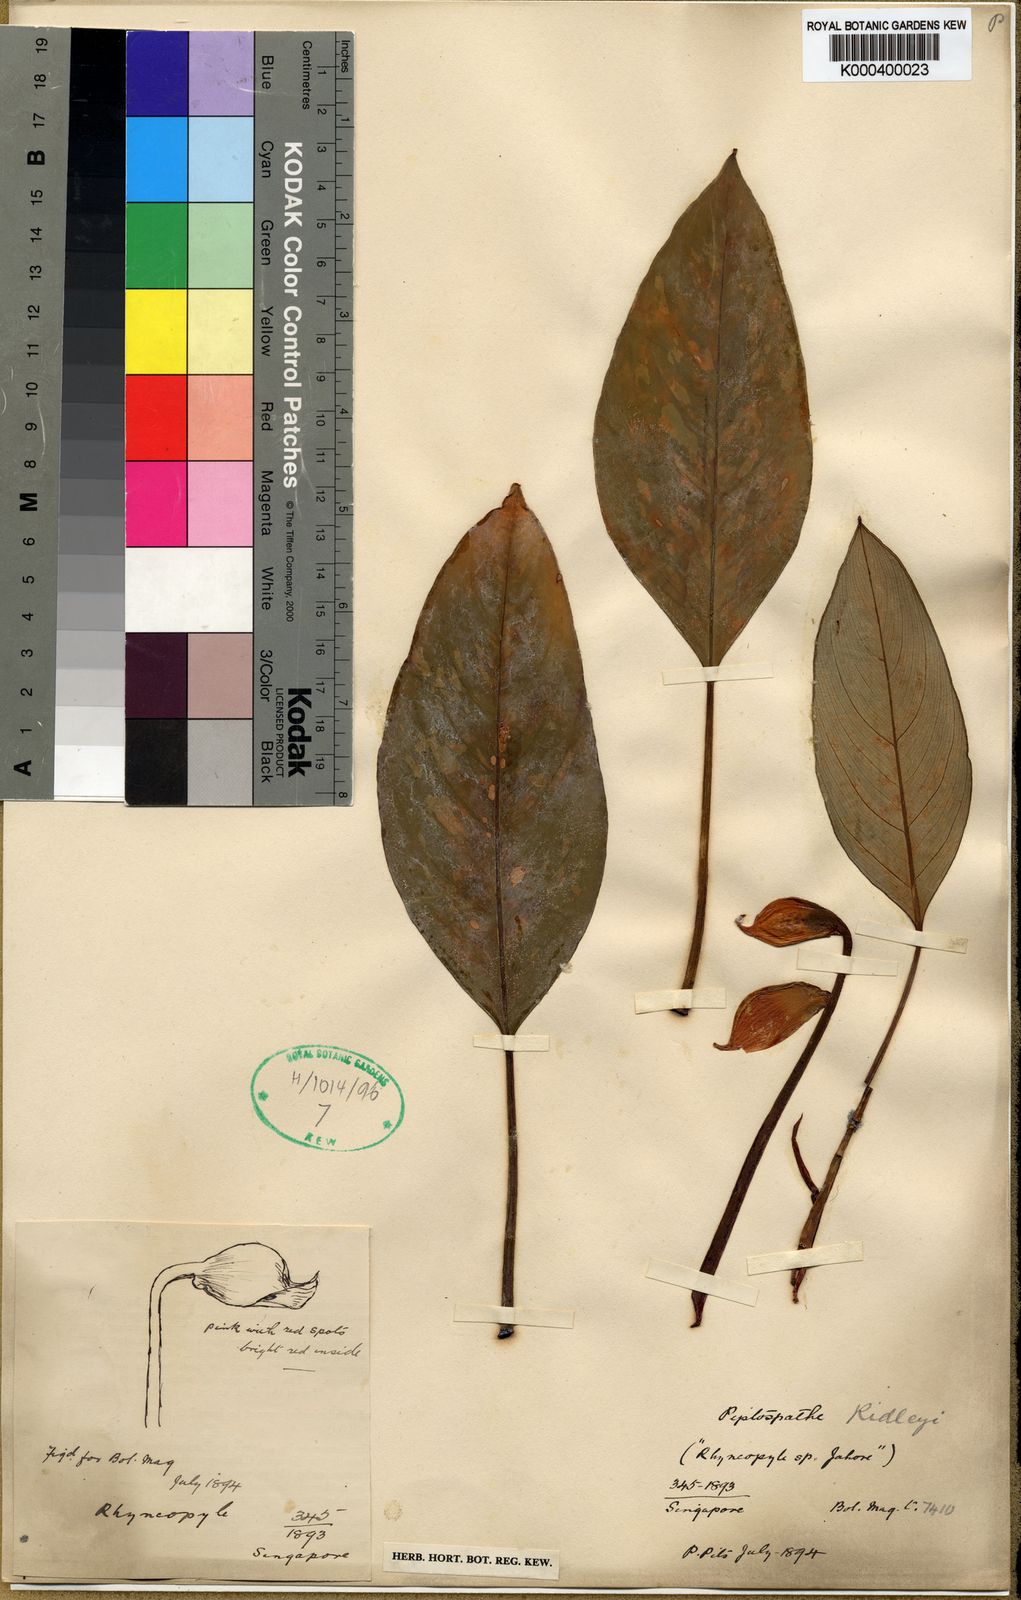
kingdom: Plantae
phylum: Tracheophyta
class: Liliopsida
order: Alismatales
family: Araceae
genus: Kiewia
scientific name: Kiewia ridleyi
